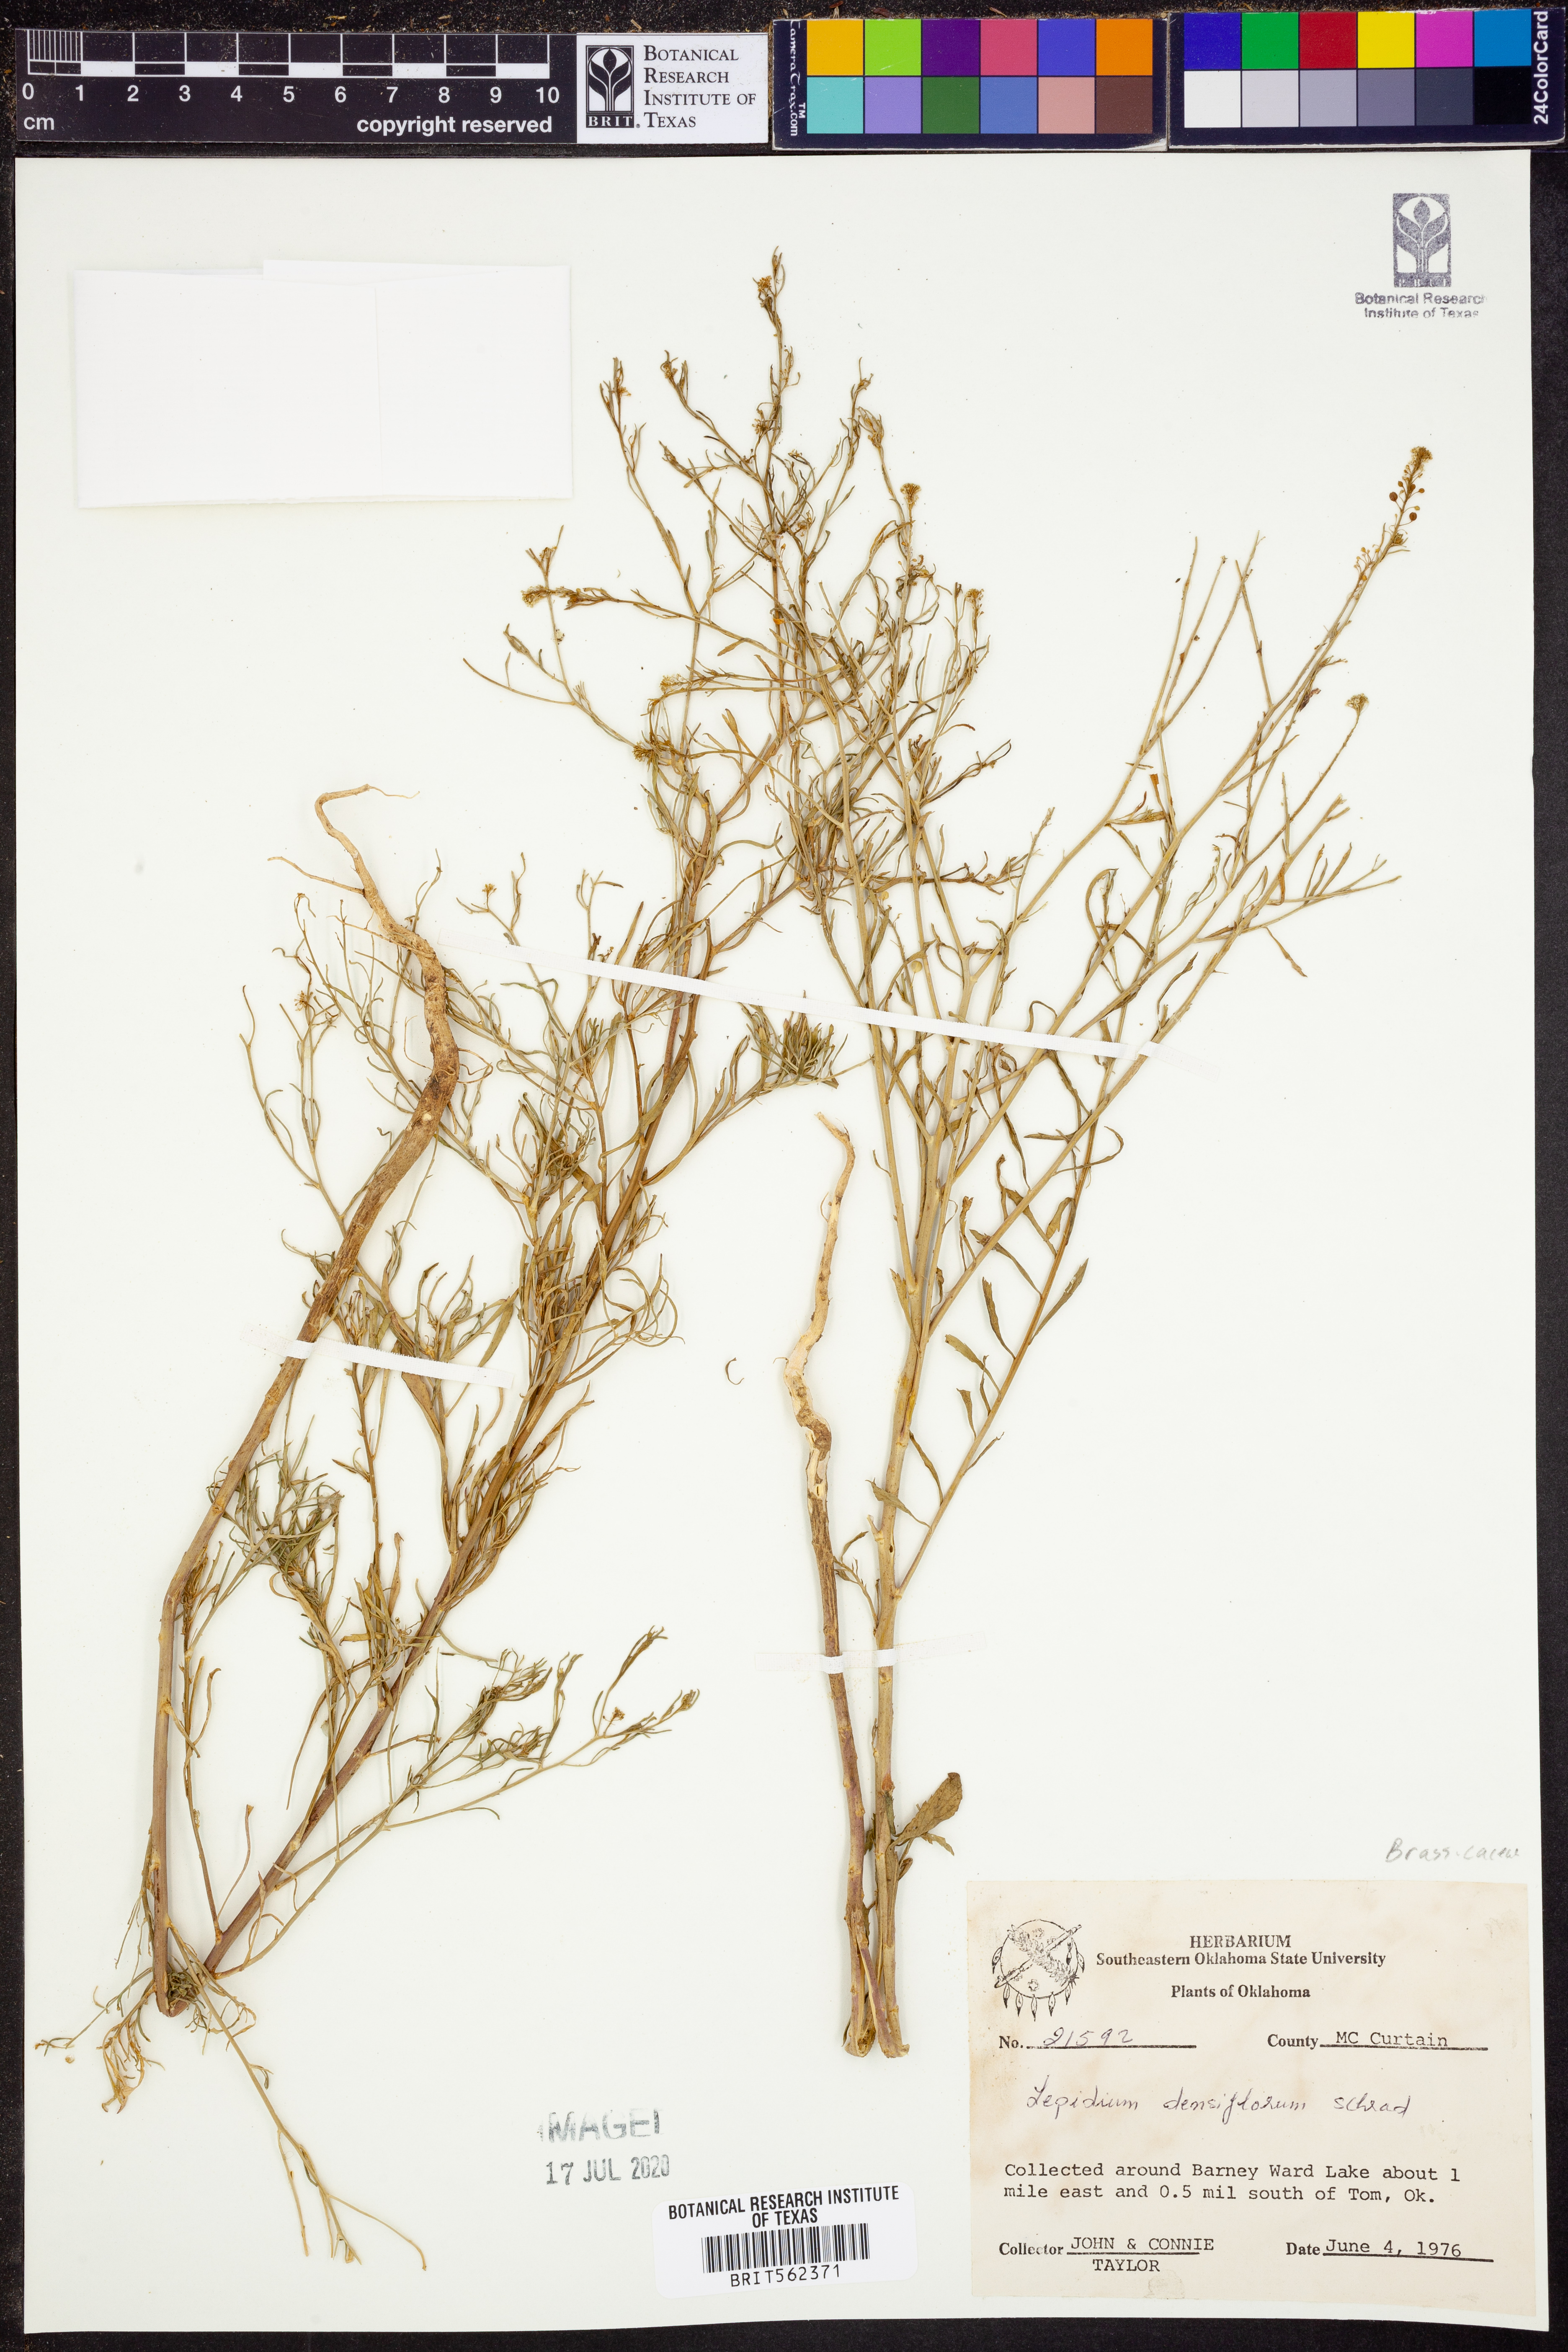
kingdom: Plantae
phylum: Tracheophyta
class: Magnoliopsida
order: Brassicales
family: Brassicaceae
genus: Lepidium
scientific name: Lepidium densiflorum
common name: Miner's pepperwort
